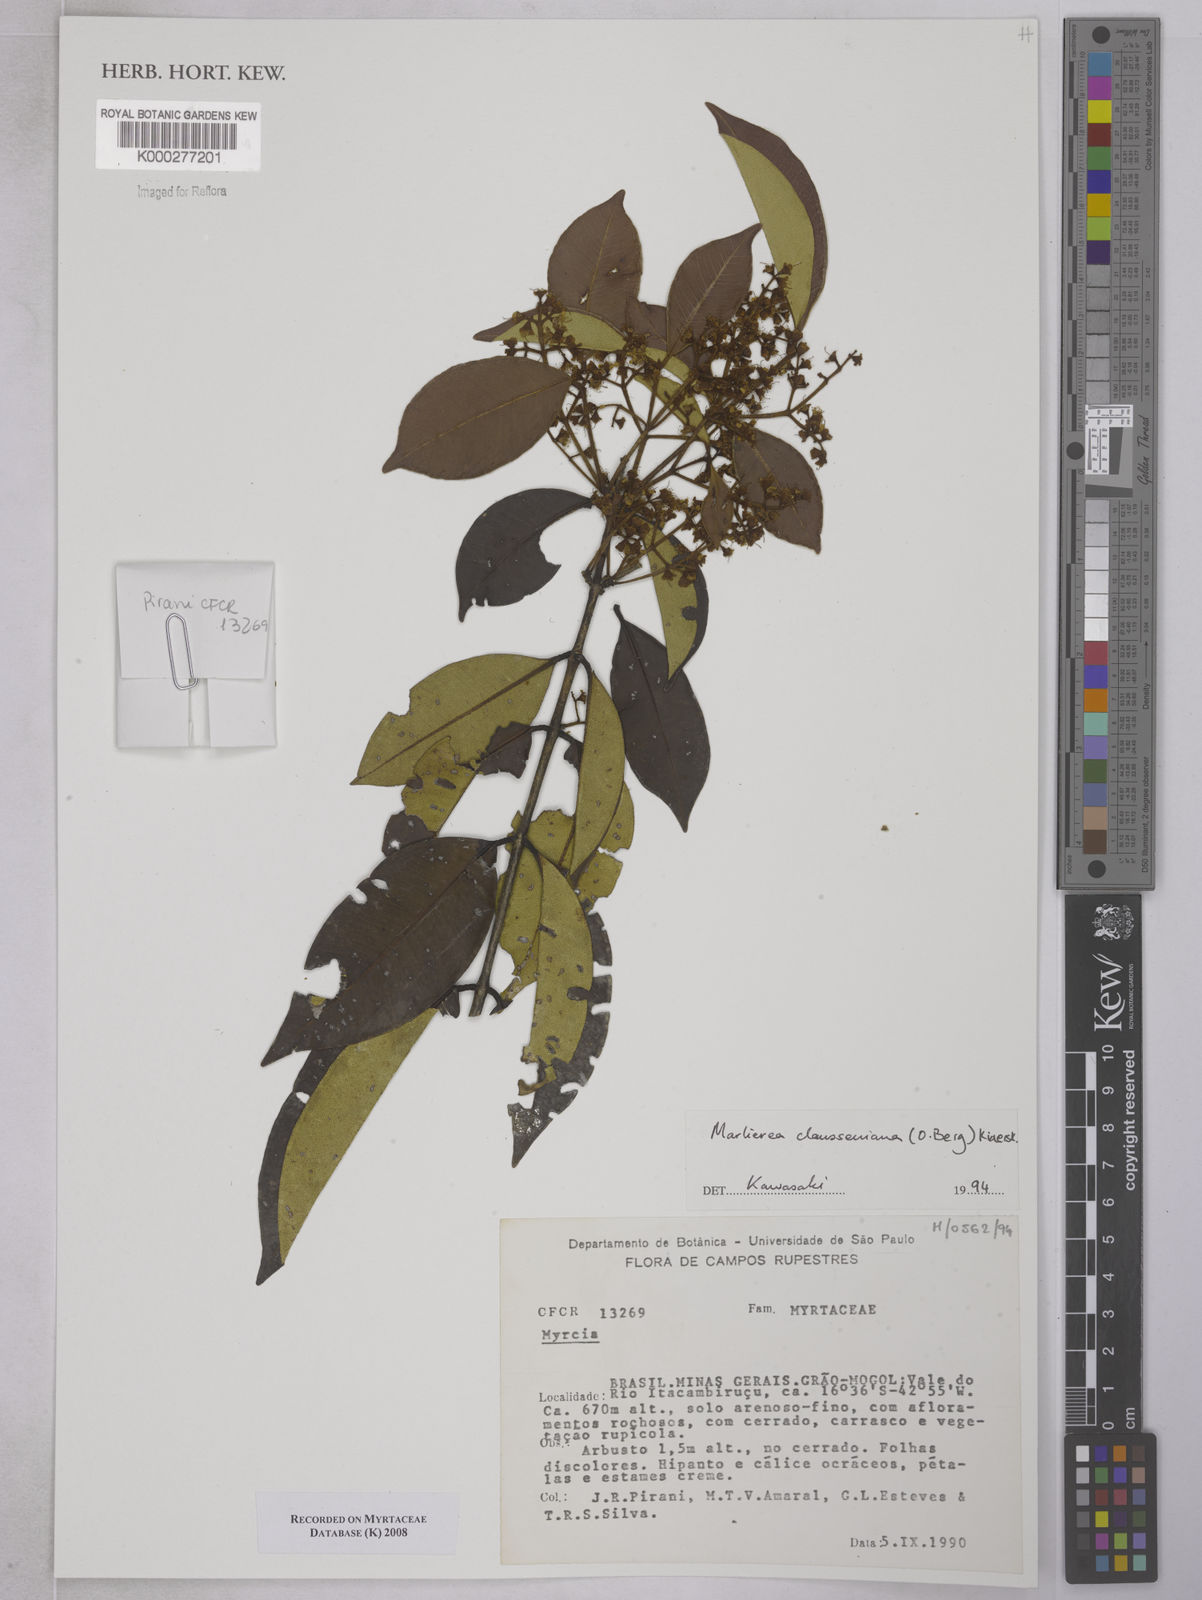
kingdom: Plantae
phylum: Tracheophyta
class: Magnoliopsida
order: Myrtales
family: Myrtaceae
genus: Marlierea
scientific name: Marlierea clausseniana
